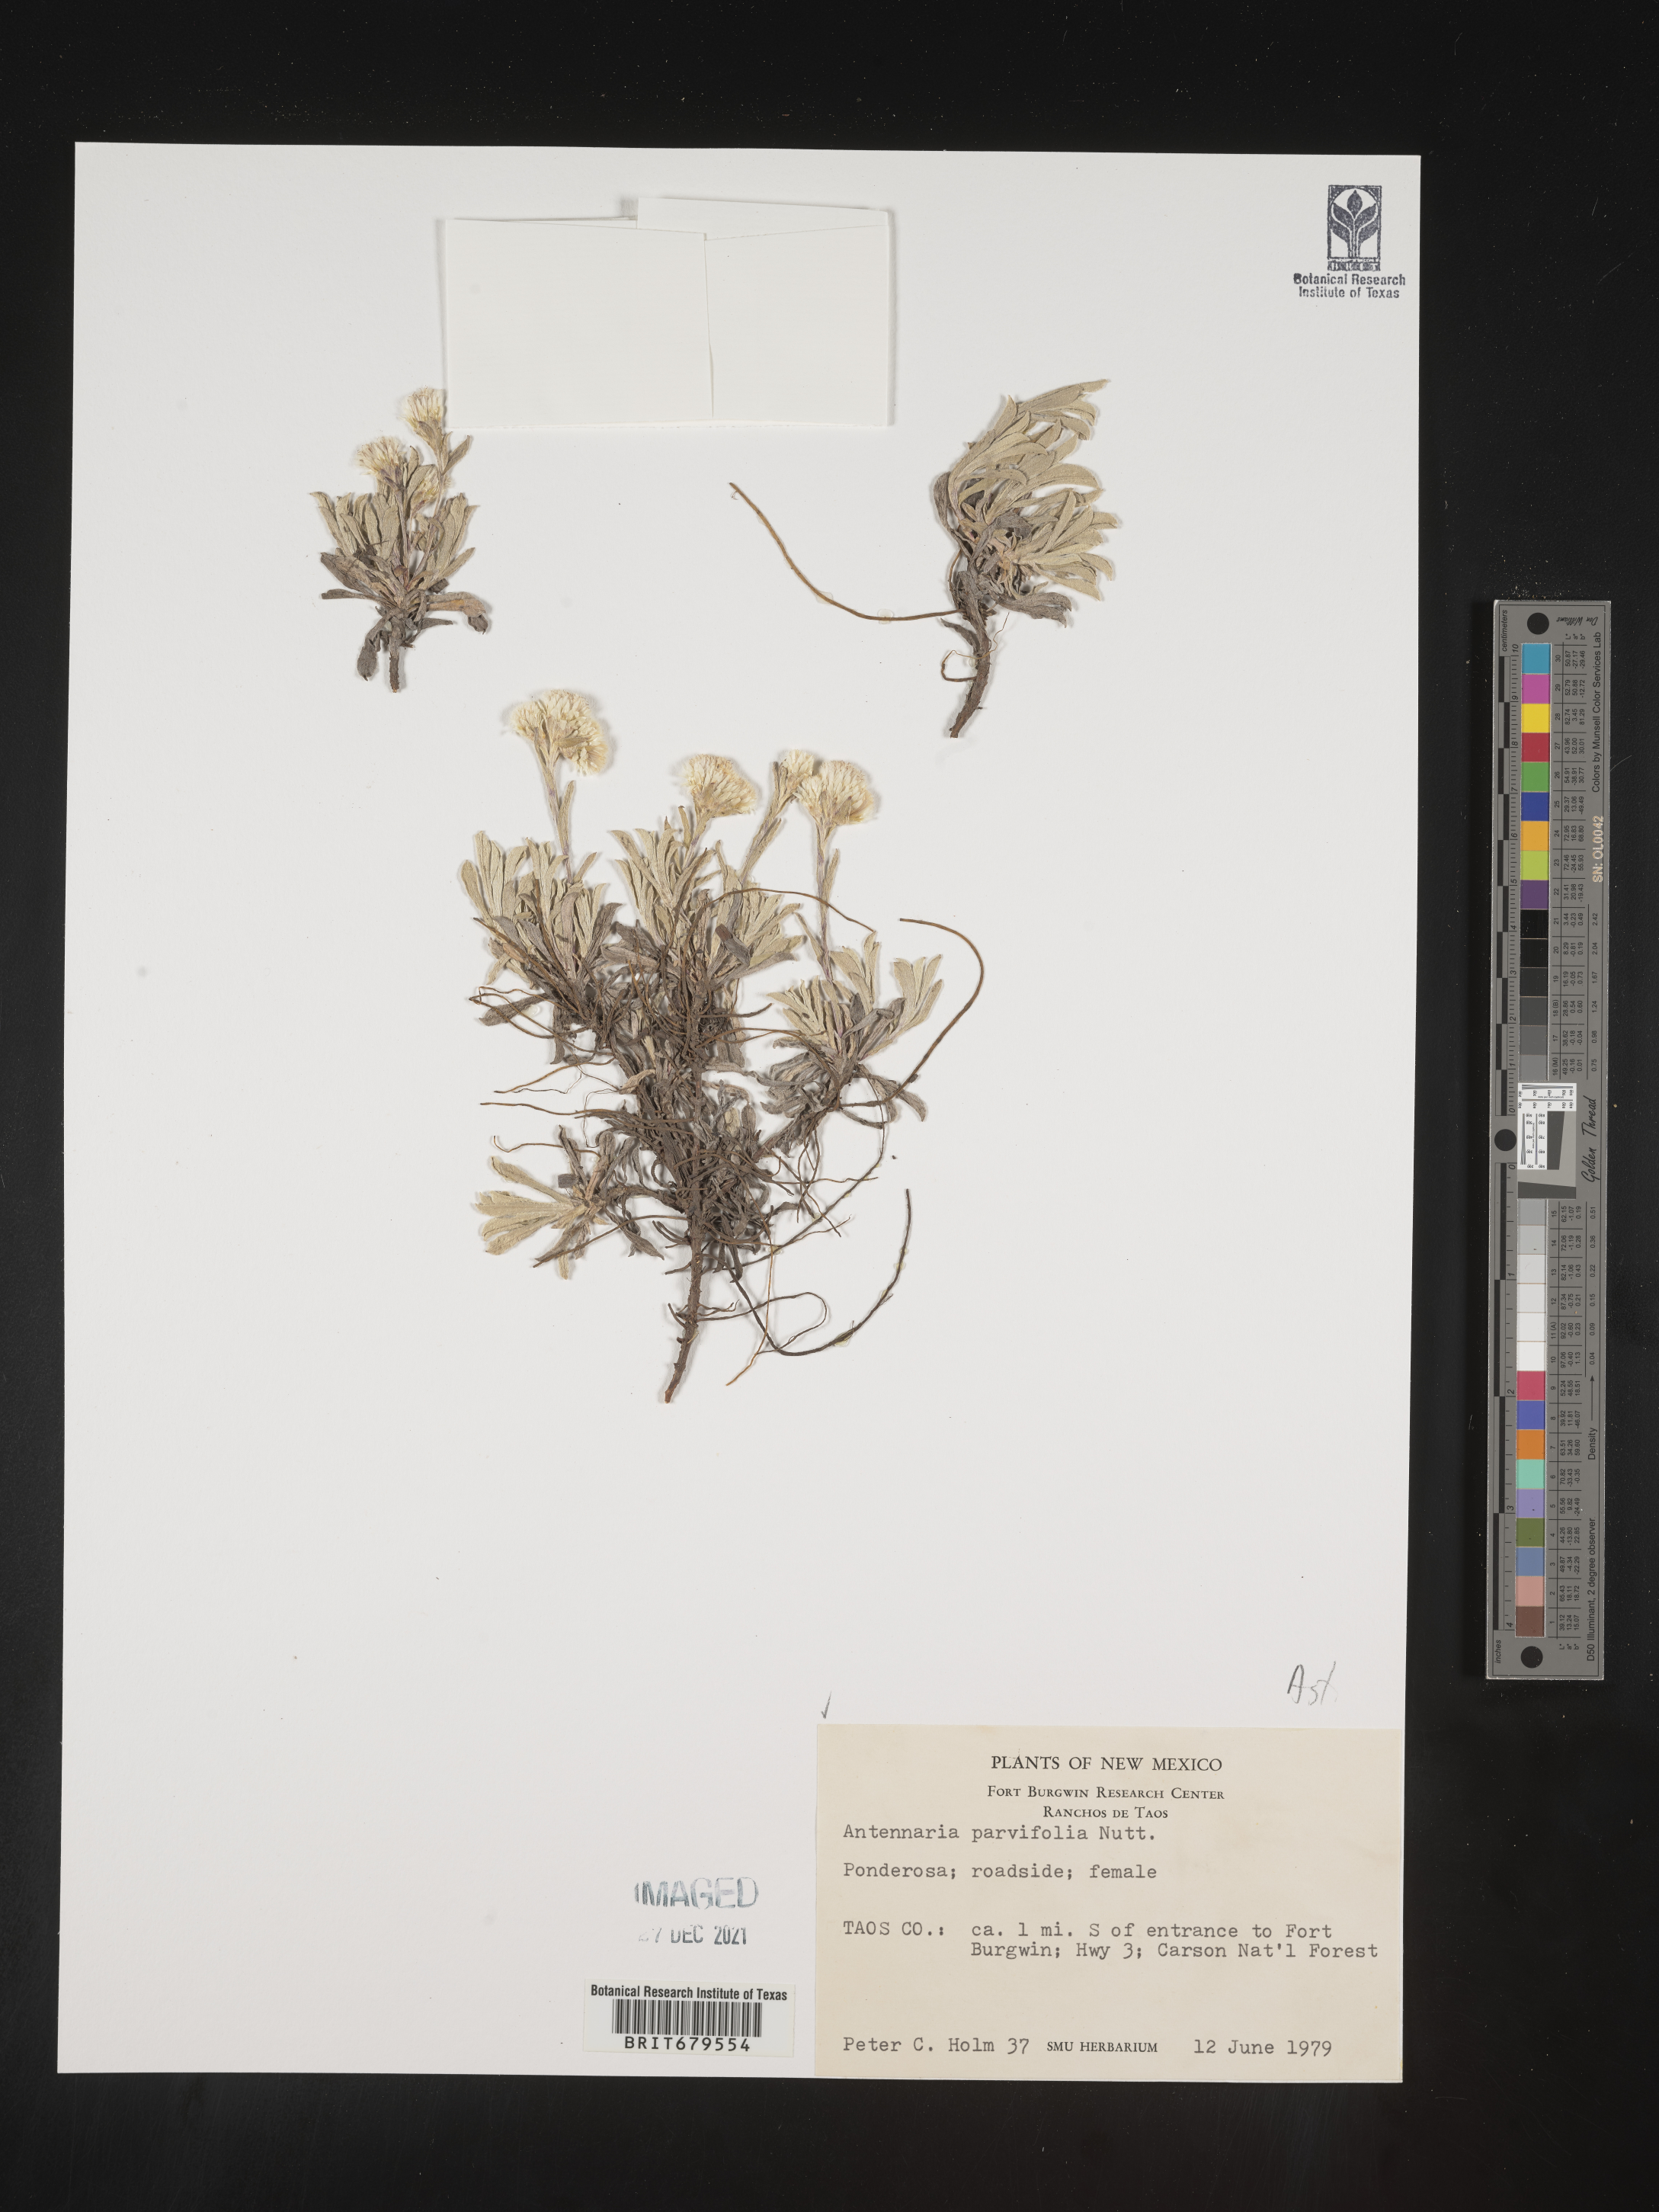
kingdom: Plantae
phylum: Tracheophyta
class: Magnoliopsida
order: Asterales
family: Asteraceae
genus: Antennaria
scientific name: Antennaria parvifolia
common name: Nuttall's pussytoes
